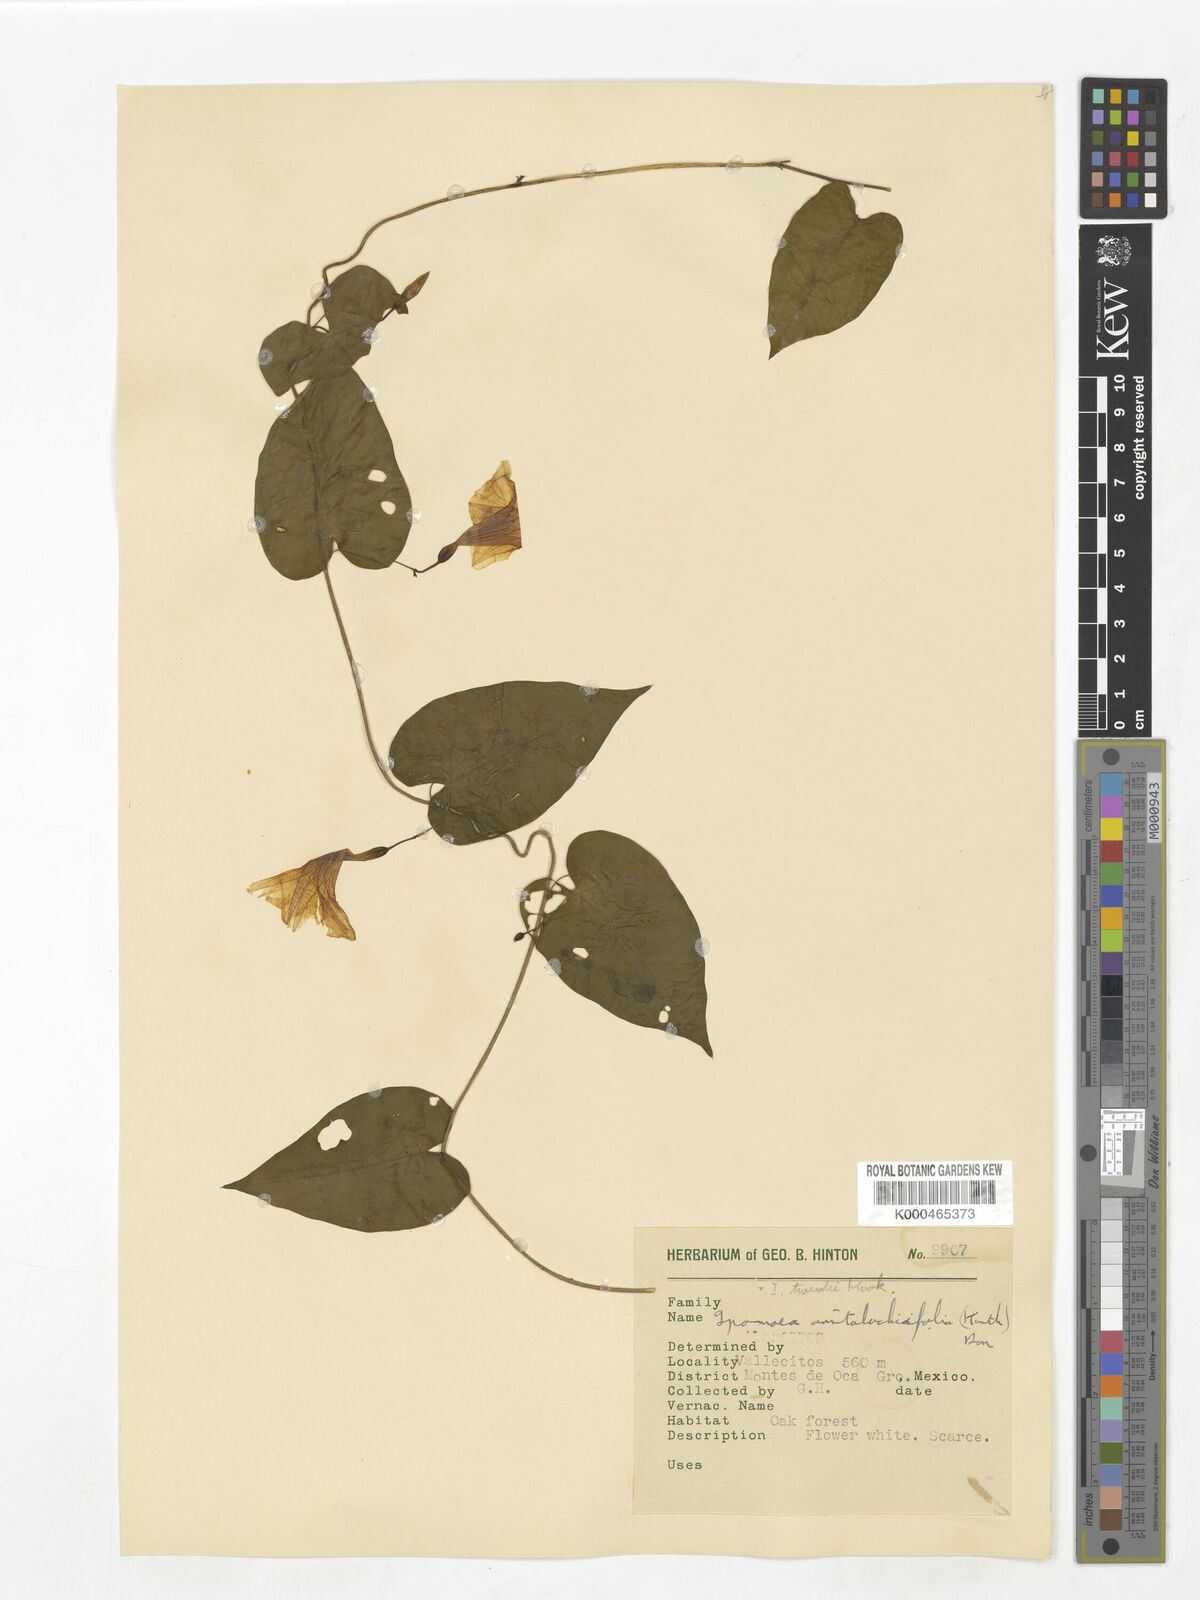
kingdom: Plantae
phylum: Tracheophyta
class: Magnoliopsida
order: Solanales
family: Convolvulaceae
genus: Ipomoea
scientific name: Ipomoea
